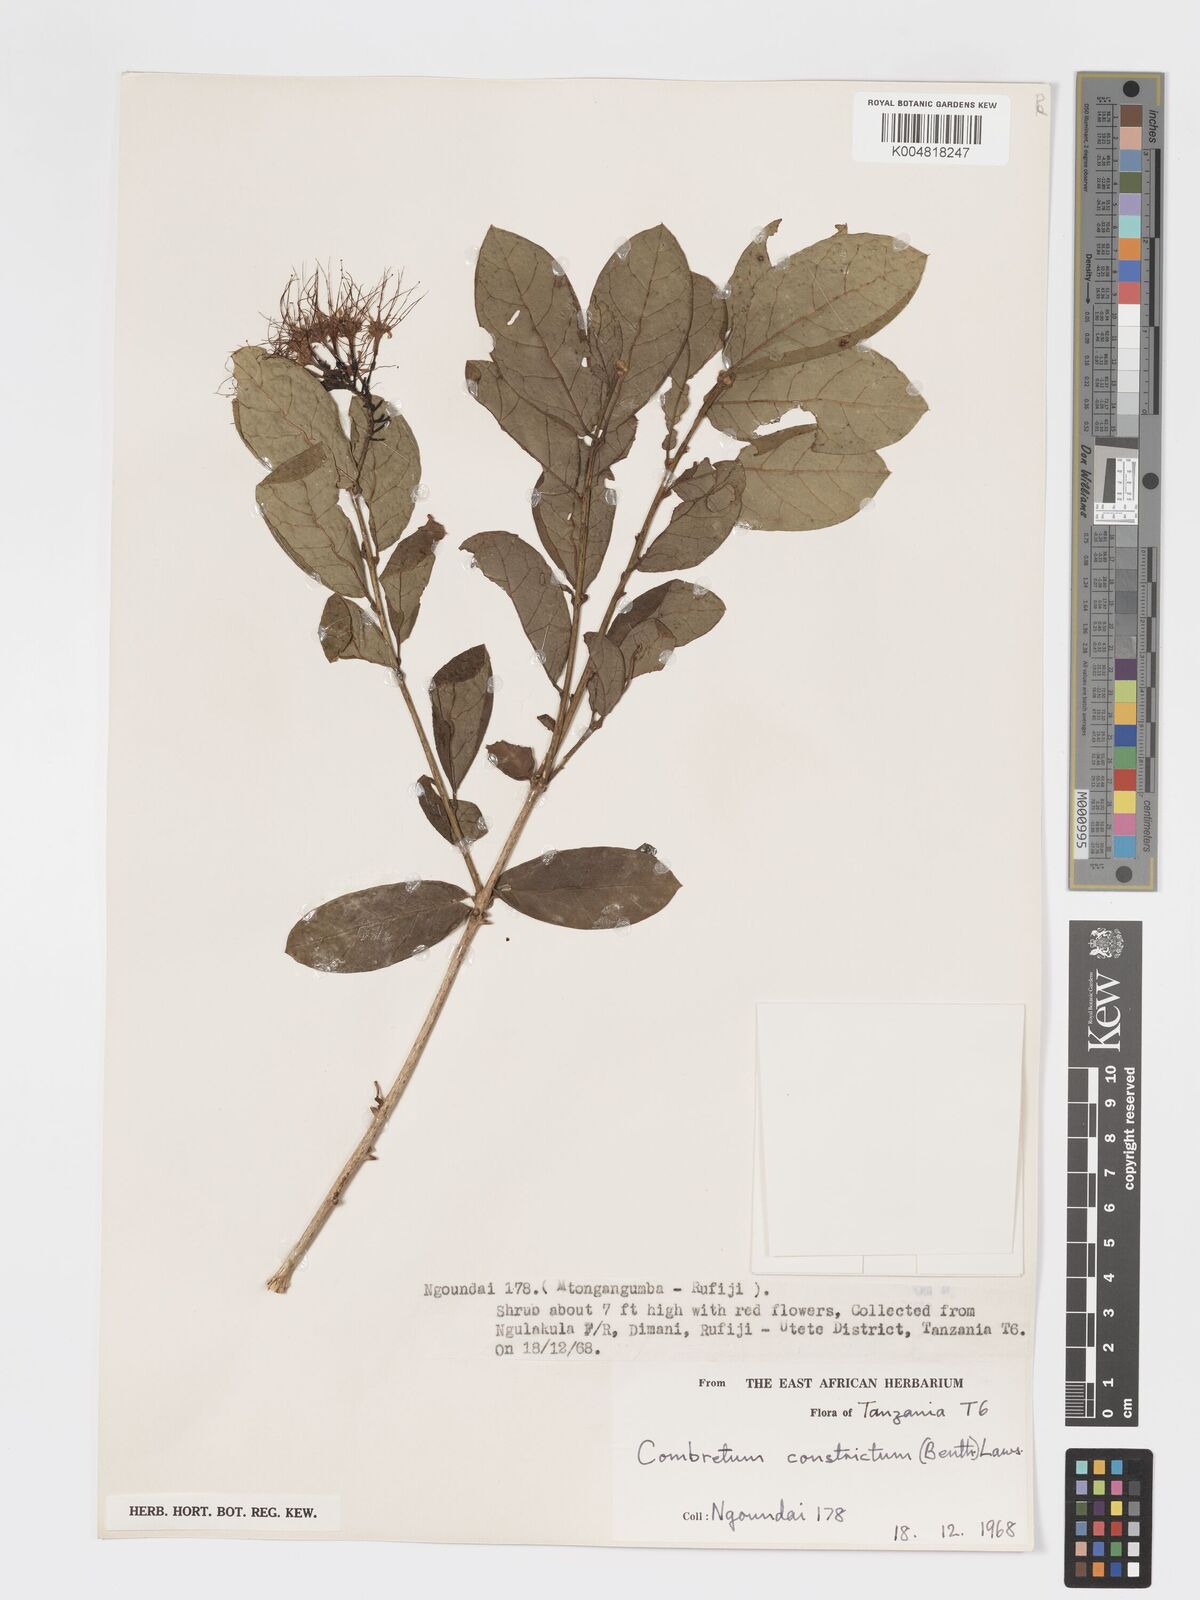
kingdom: Plantae
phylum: Tracheophyta
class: Magnoliopsida
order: Myrtales
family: Combretaceae
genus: Combretum
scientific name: Combretum constrictum
